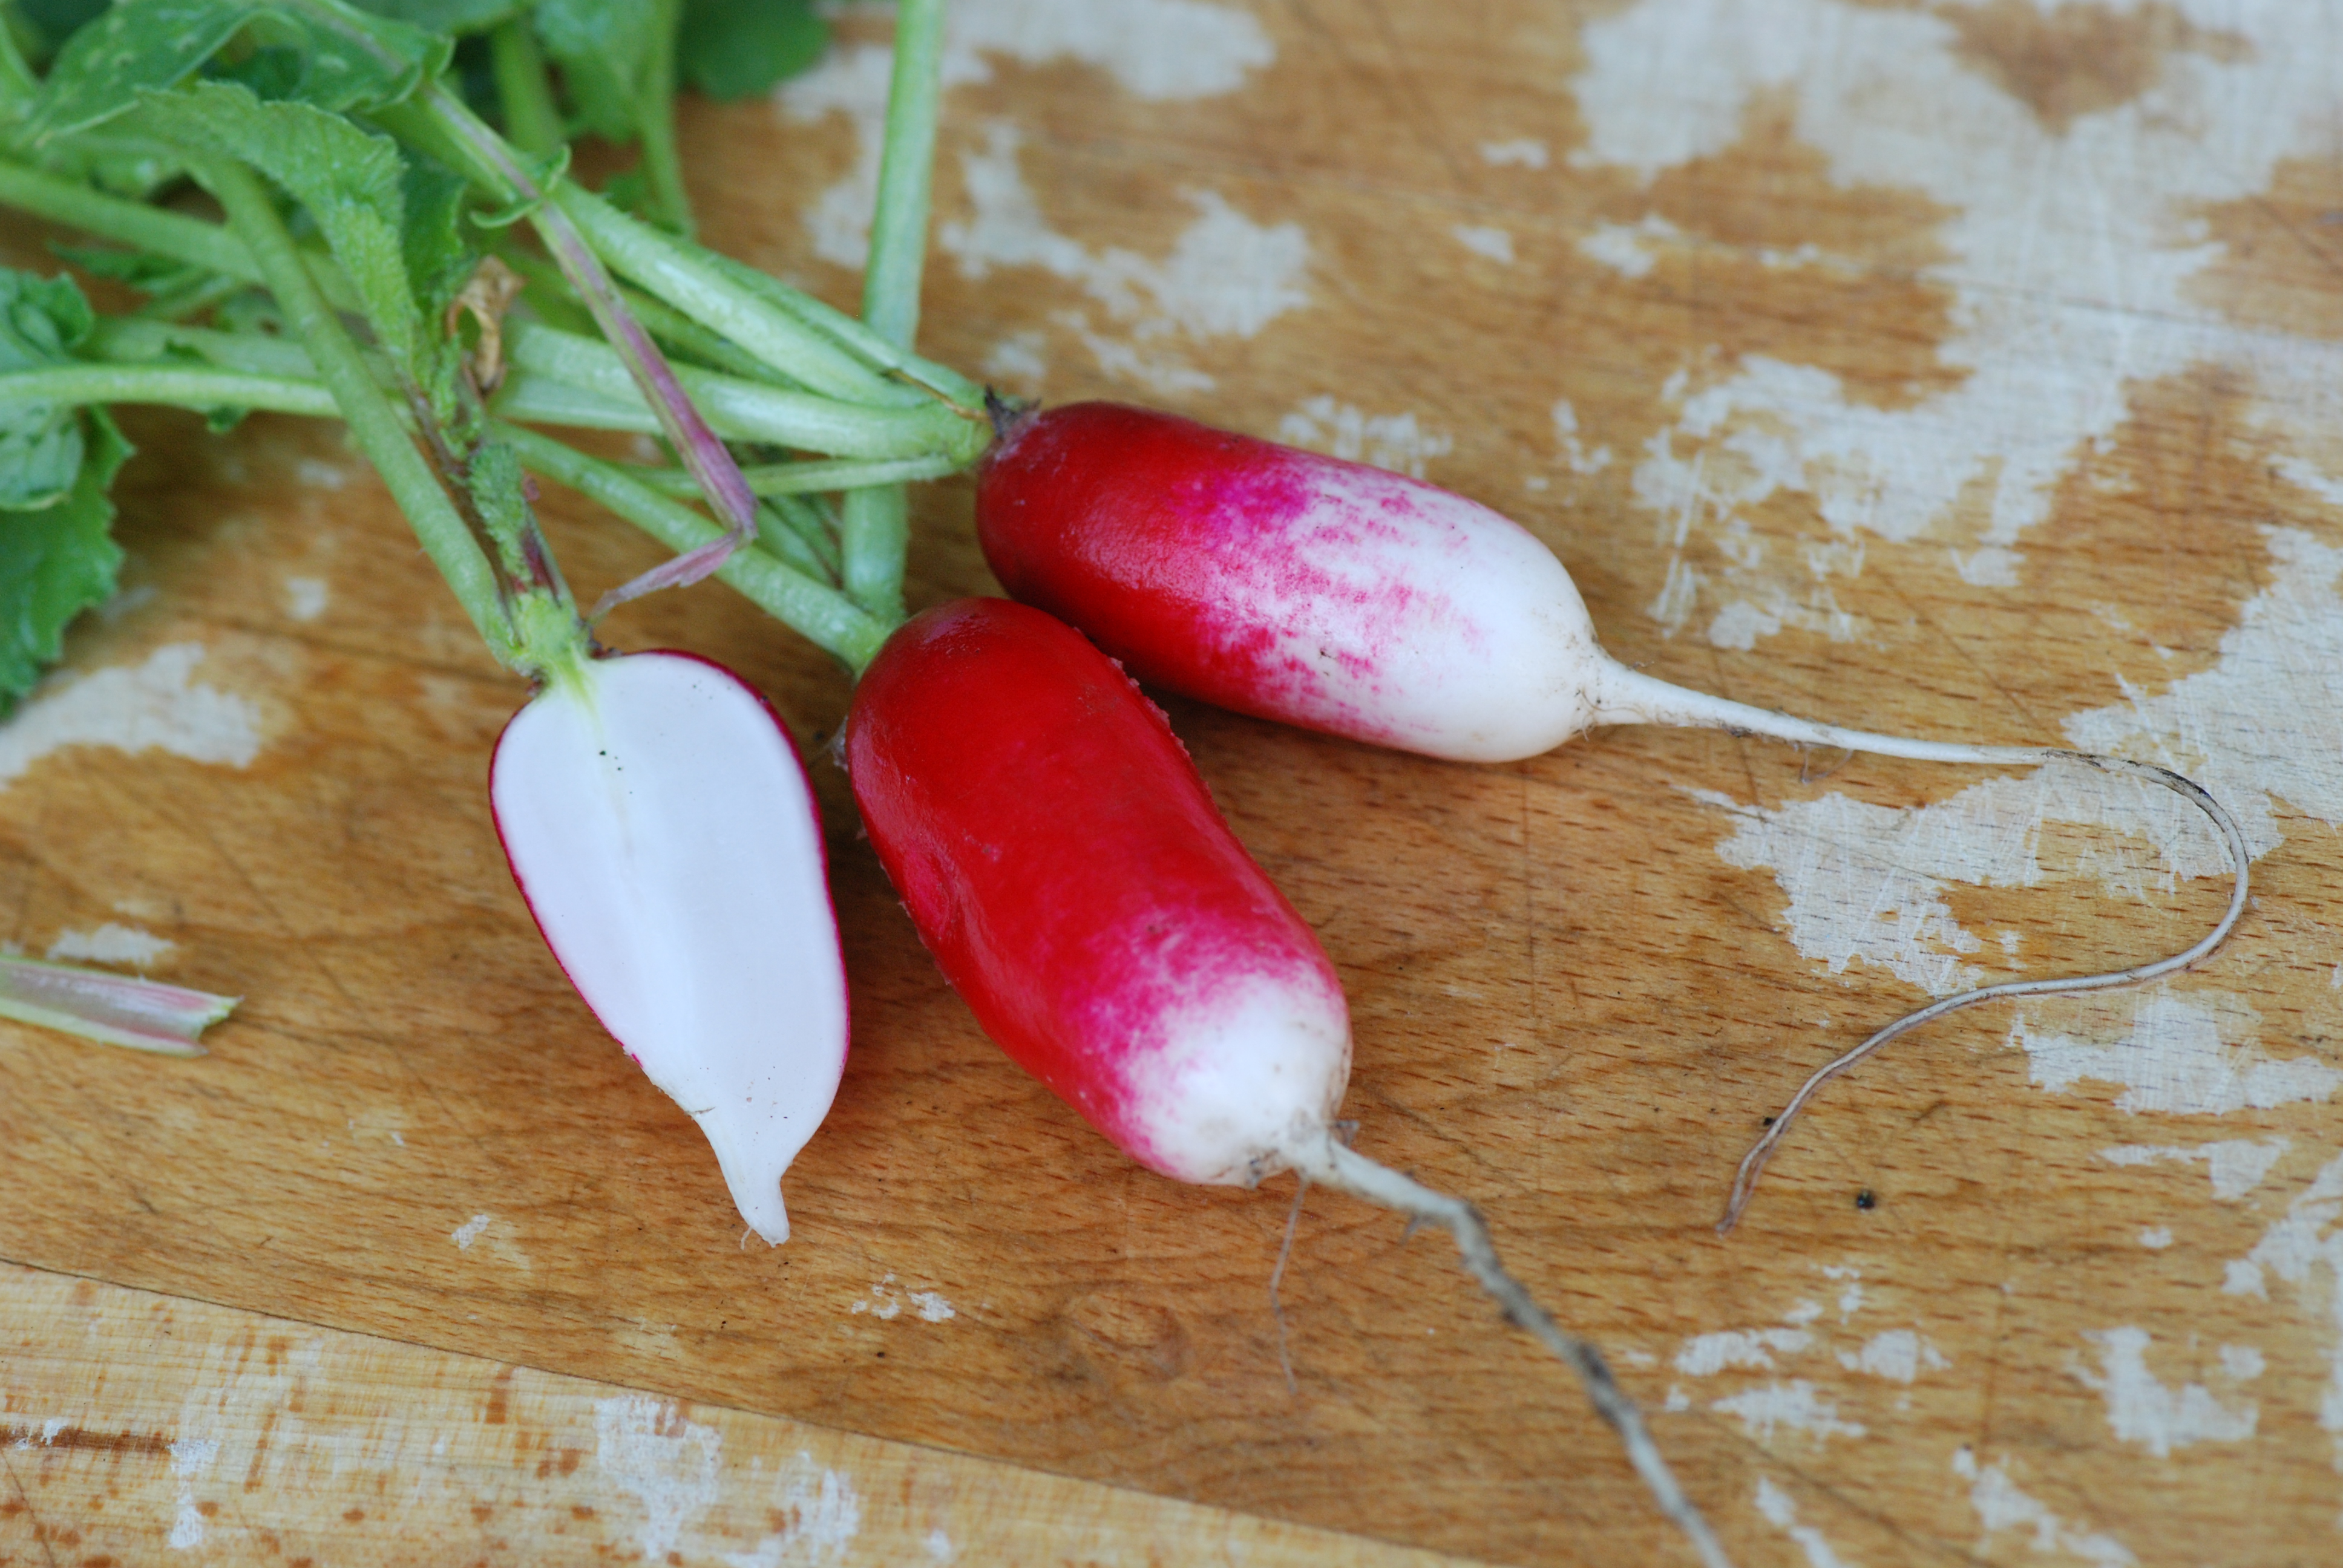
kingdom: Plantae
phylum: Tracheophyta
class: Magnoliopsida
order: Brassicales
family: Brassicaceae
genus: Raphanus
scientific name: Raphanus sativus
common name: Cultivated radish
